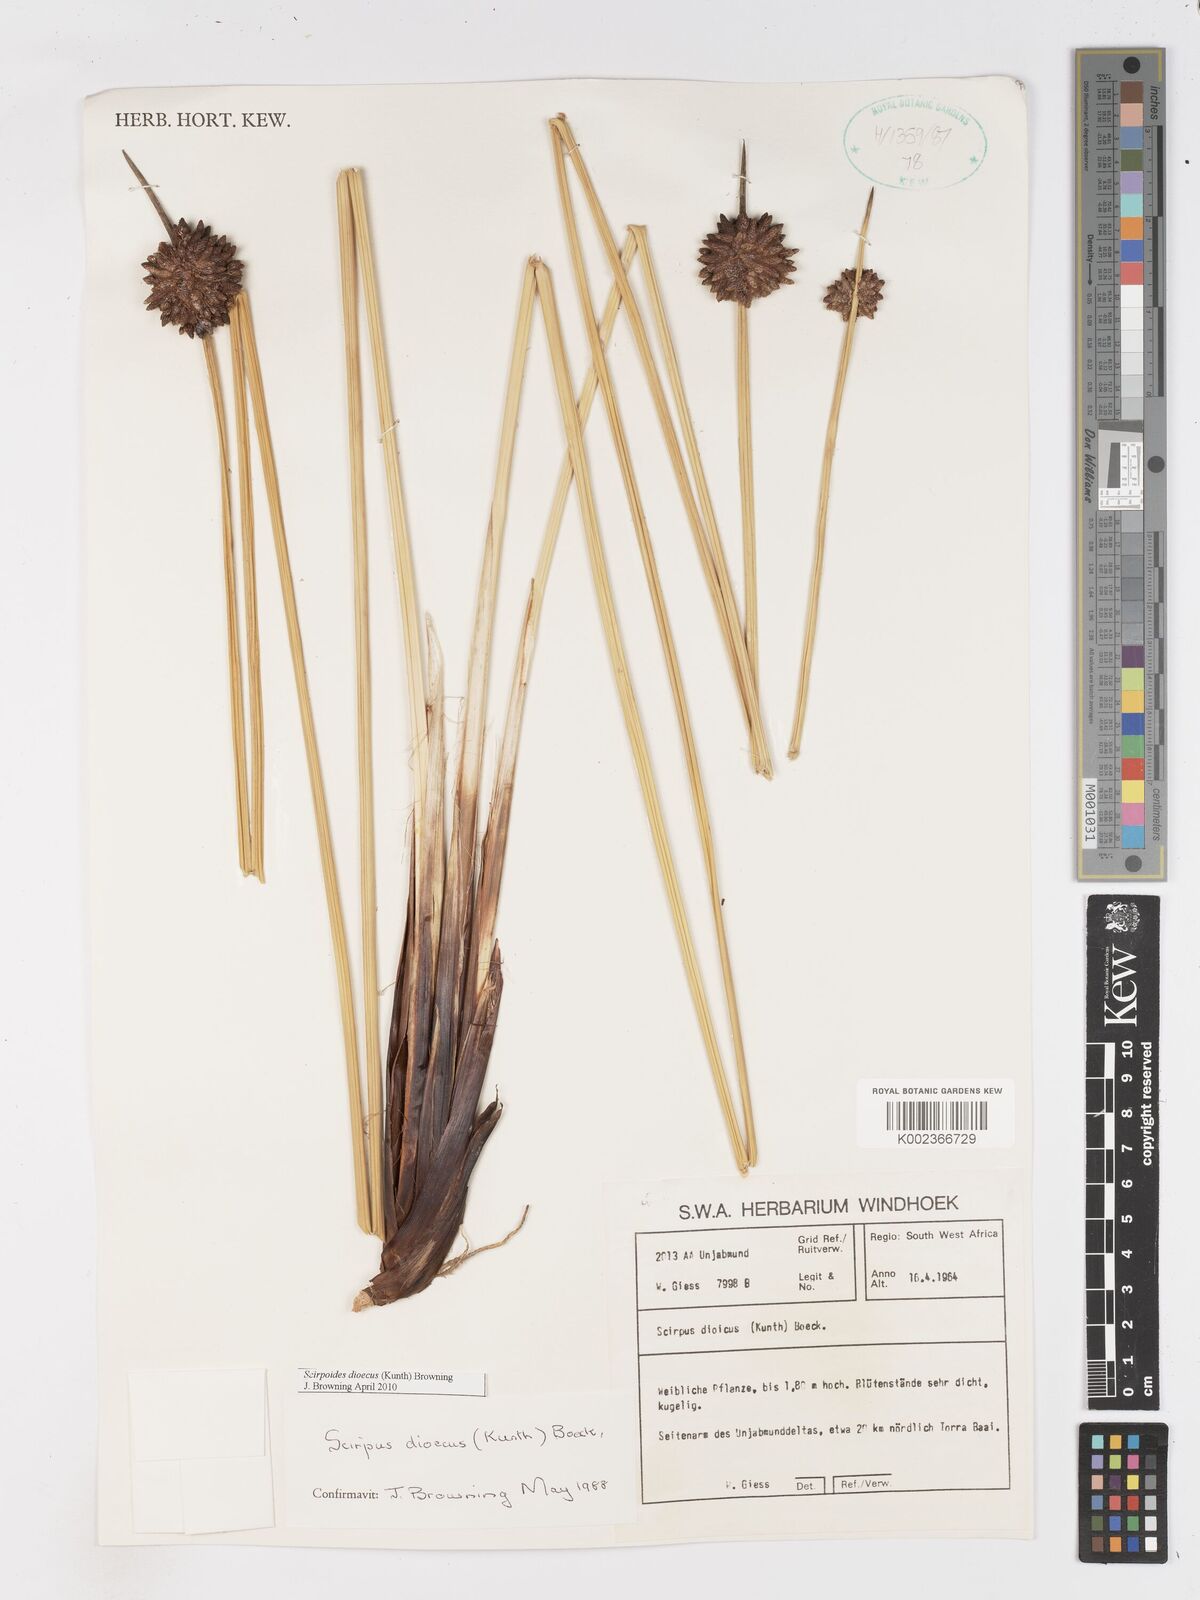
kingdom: Plantae
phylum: Tracheophyta
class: Liliopsida
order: Poales
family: Cyperaceae
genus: Scirpoides
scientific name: Scirpoides
